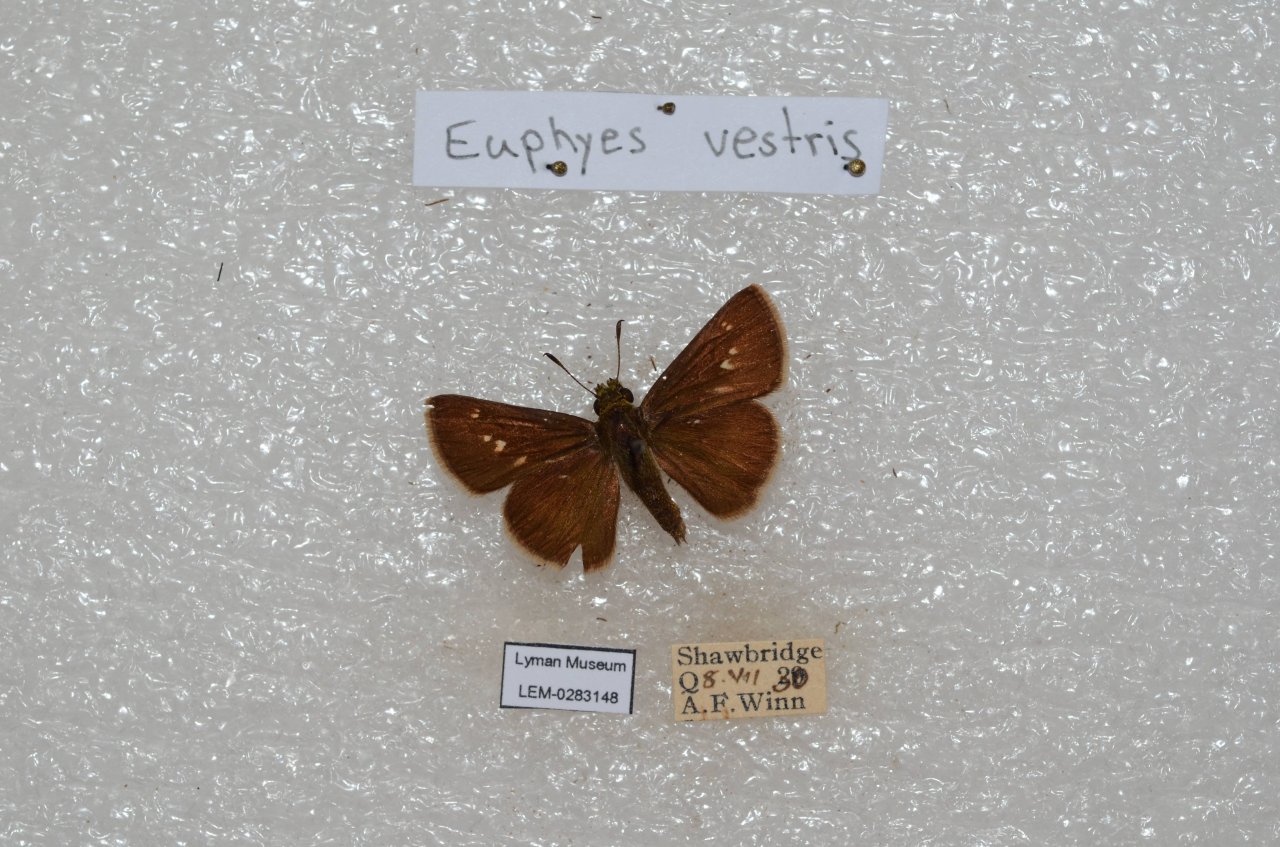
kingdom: Animalia
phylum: Arthropoda
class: Insecta
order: Lepidoptera
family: Hesperiidae
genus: Euphyes
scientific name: Euphyes vestris
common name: Dun Skipper
